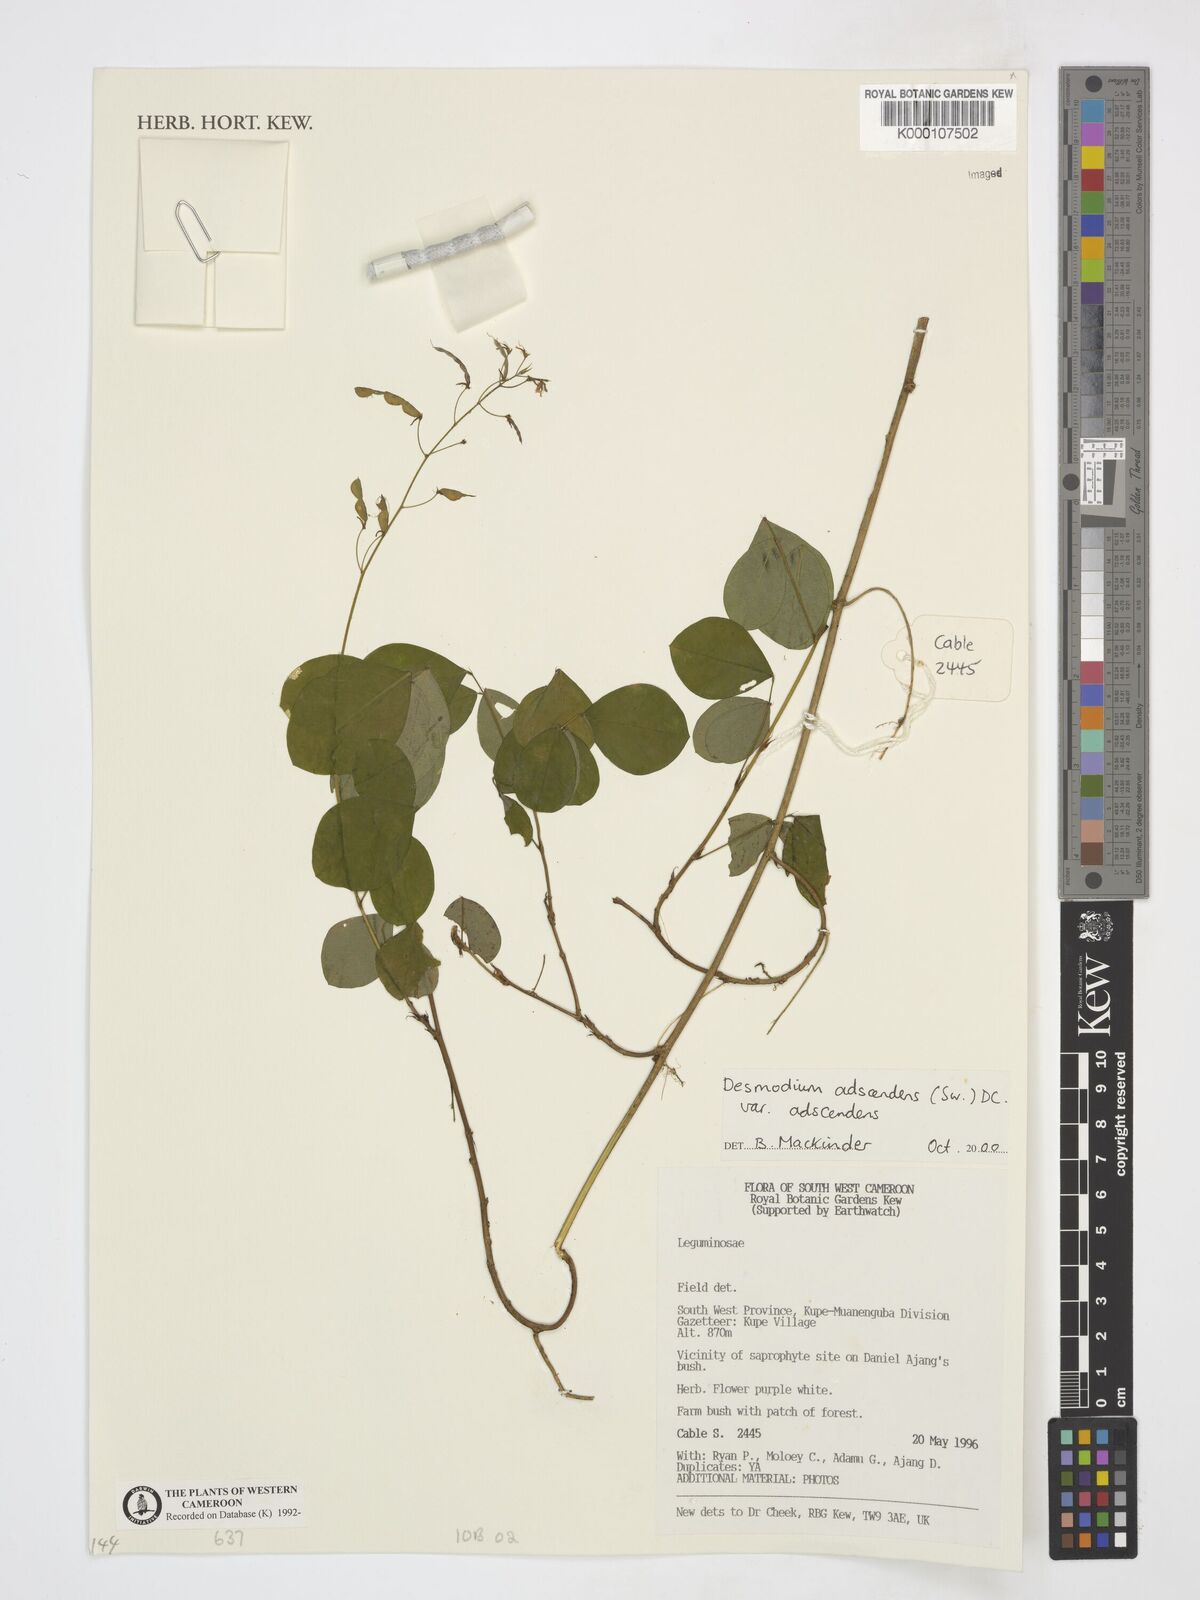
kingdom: Plantae
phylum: Tracheophyta
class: Magnoliopsida
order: Fabales
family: Fabaceae
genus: Grona
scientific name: Grona adscendens
